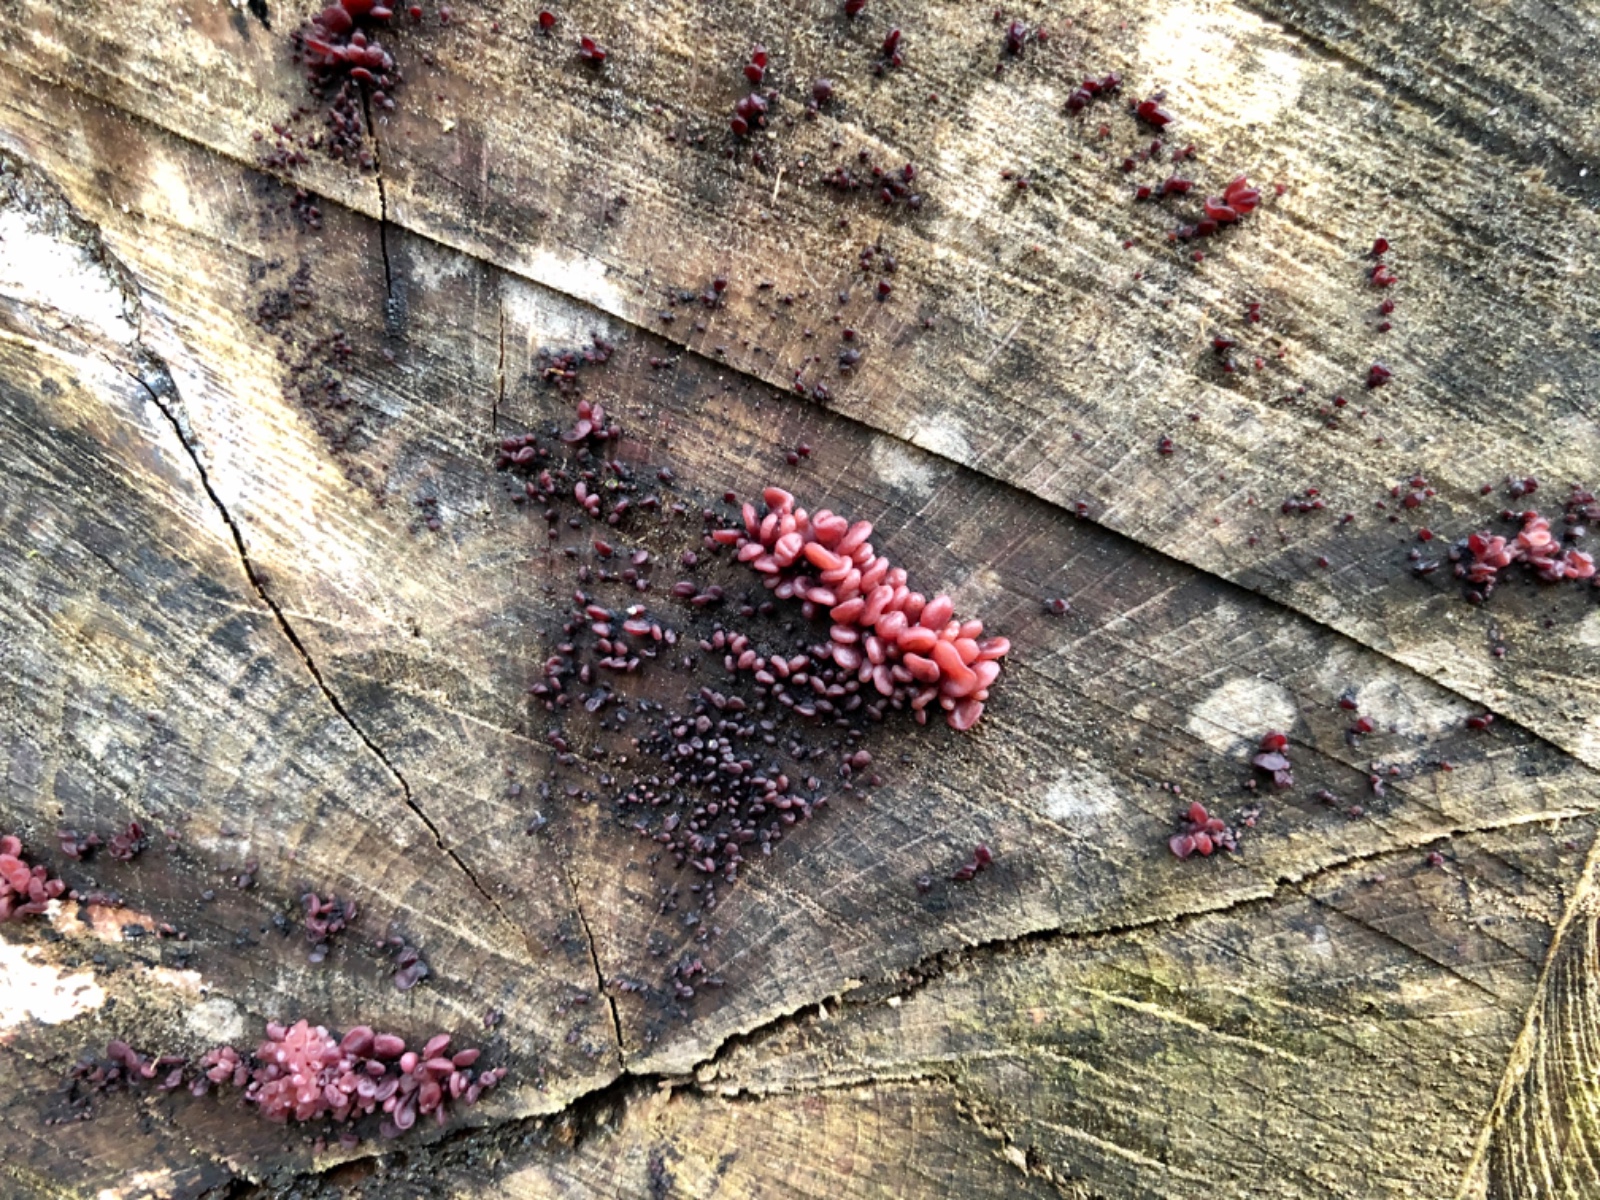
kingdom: Fungi
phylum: Ascomycota
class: Leotiomycetes
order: Helotiales
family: Gelatinodiscaceae
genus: Ascocoryne
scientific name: Ascocoryne sarcoides
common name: rødlilla sejskive
